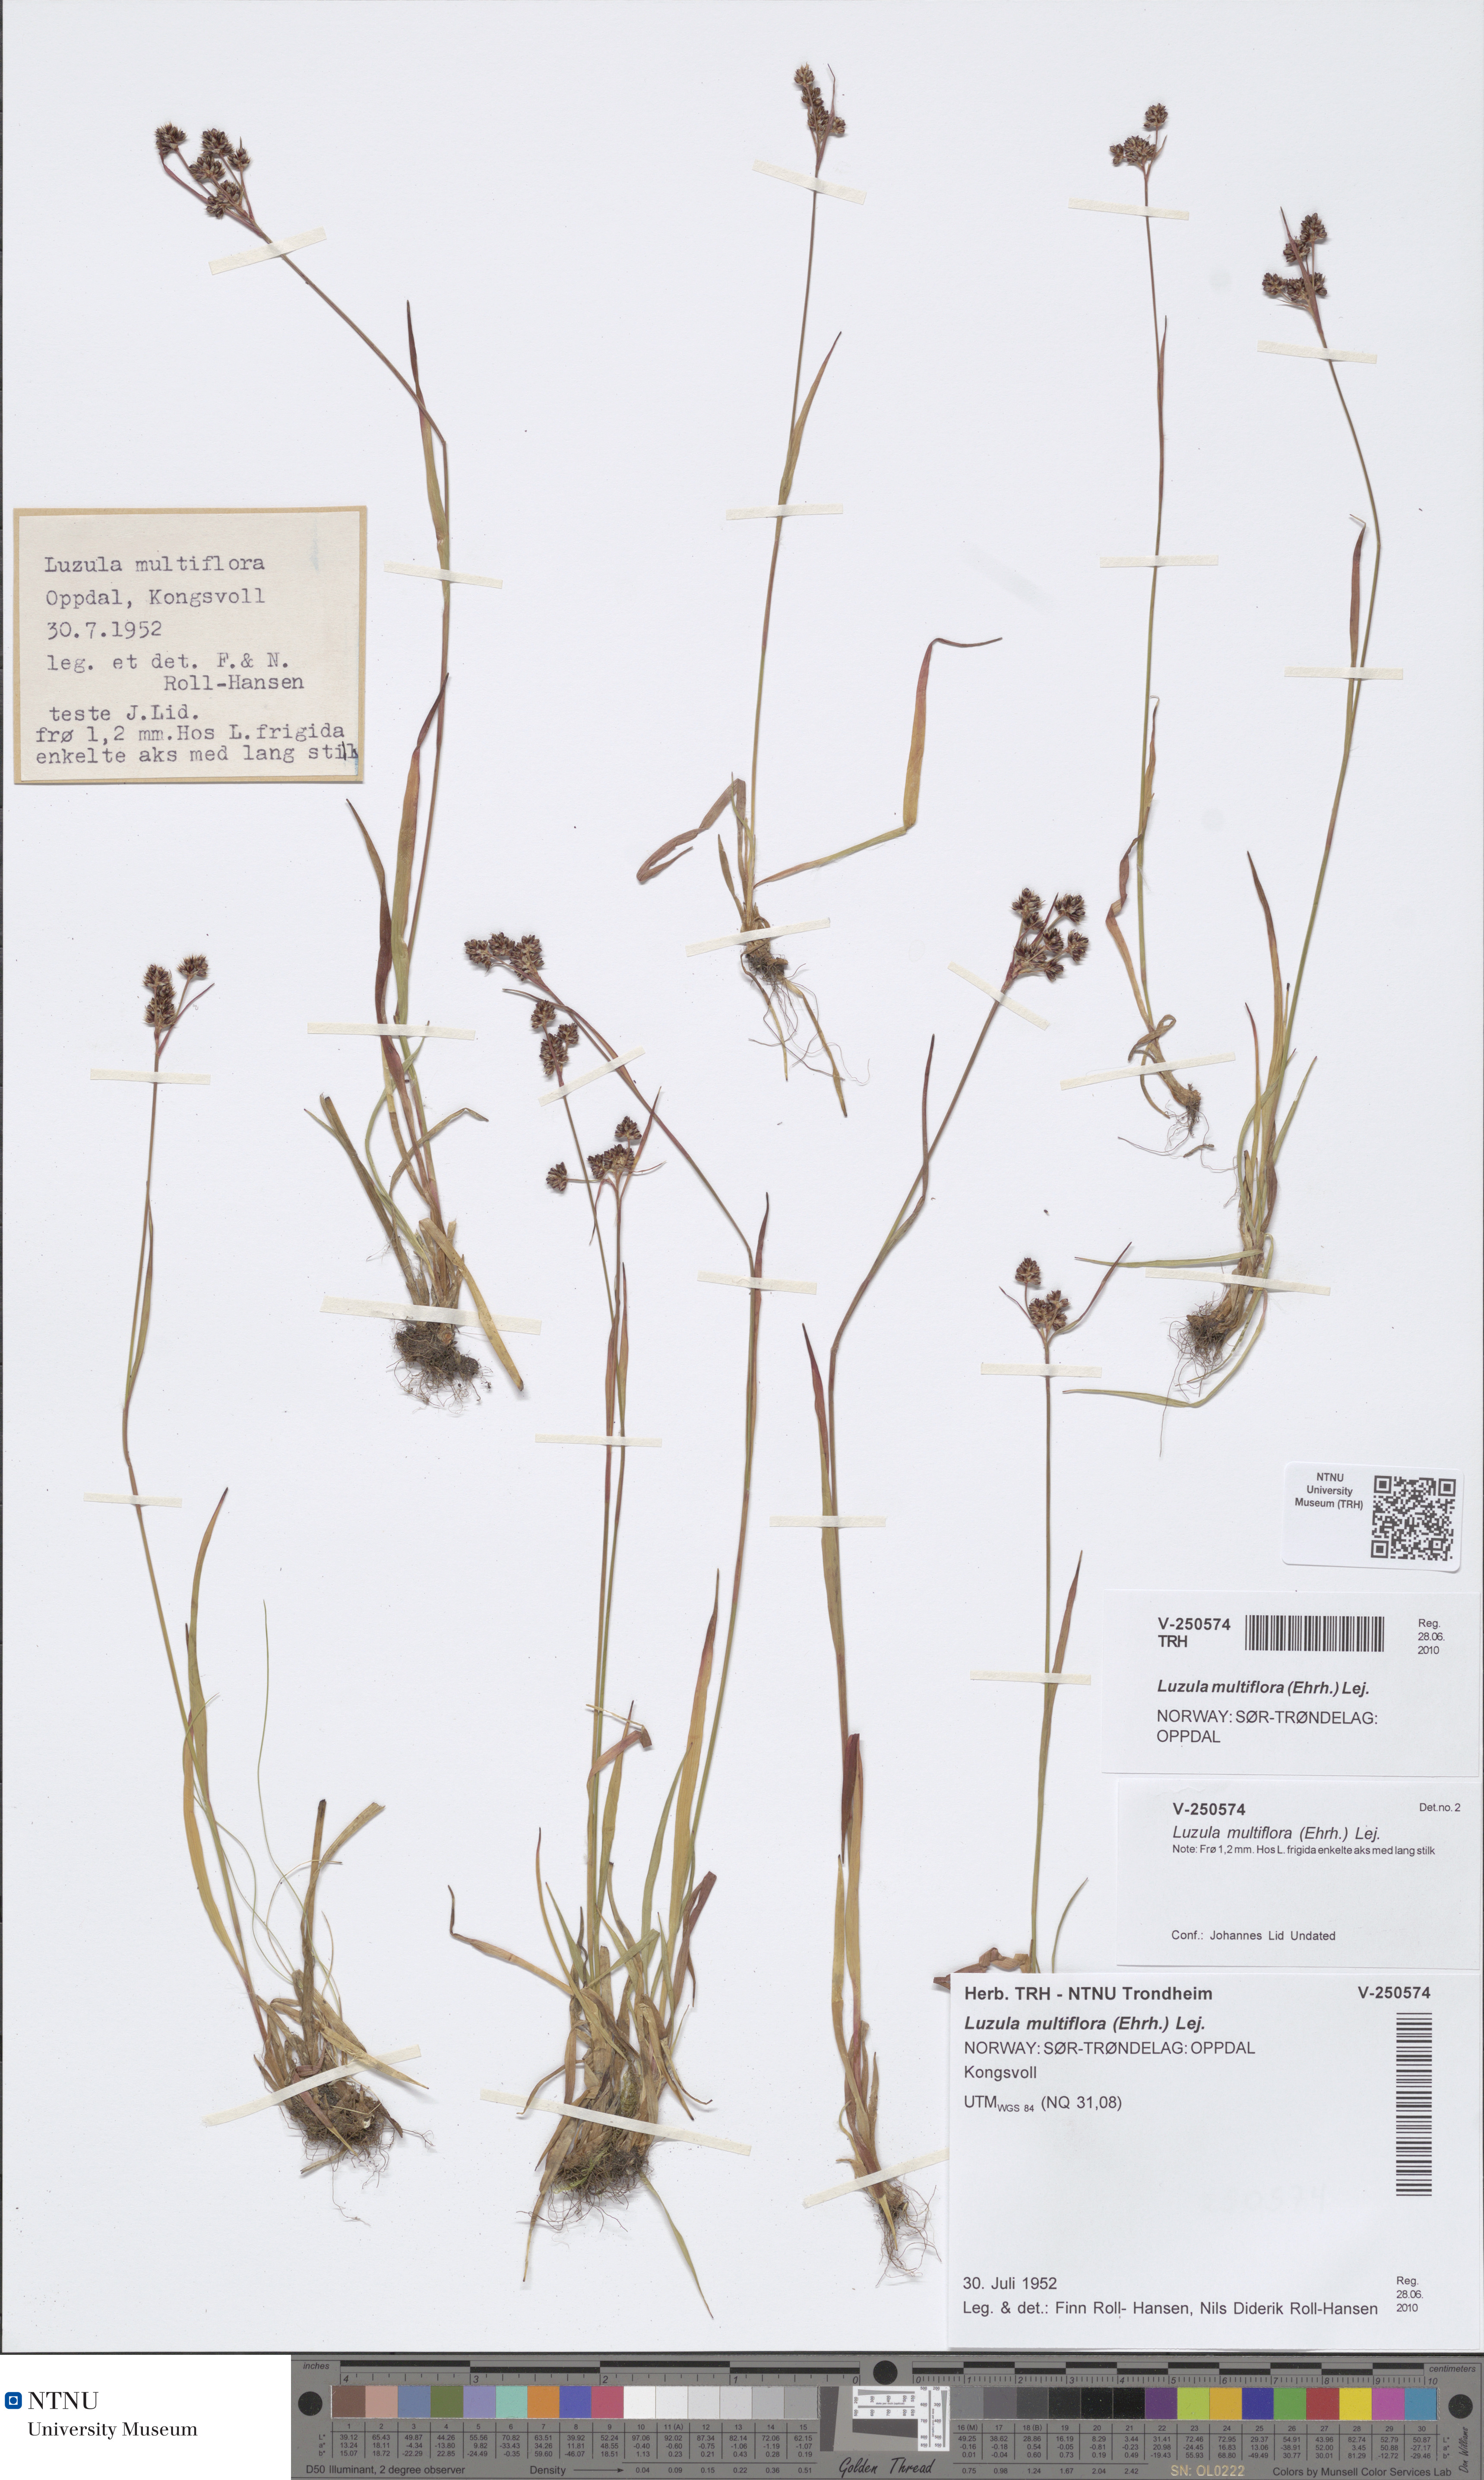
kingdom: Plantae
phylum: Tracheophyta
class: Liliopsida
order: Poales
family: Juncaceae
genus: Luzula
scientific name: Luzula multiflora
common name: Heath wood-rush
